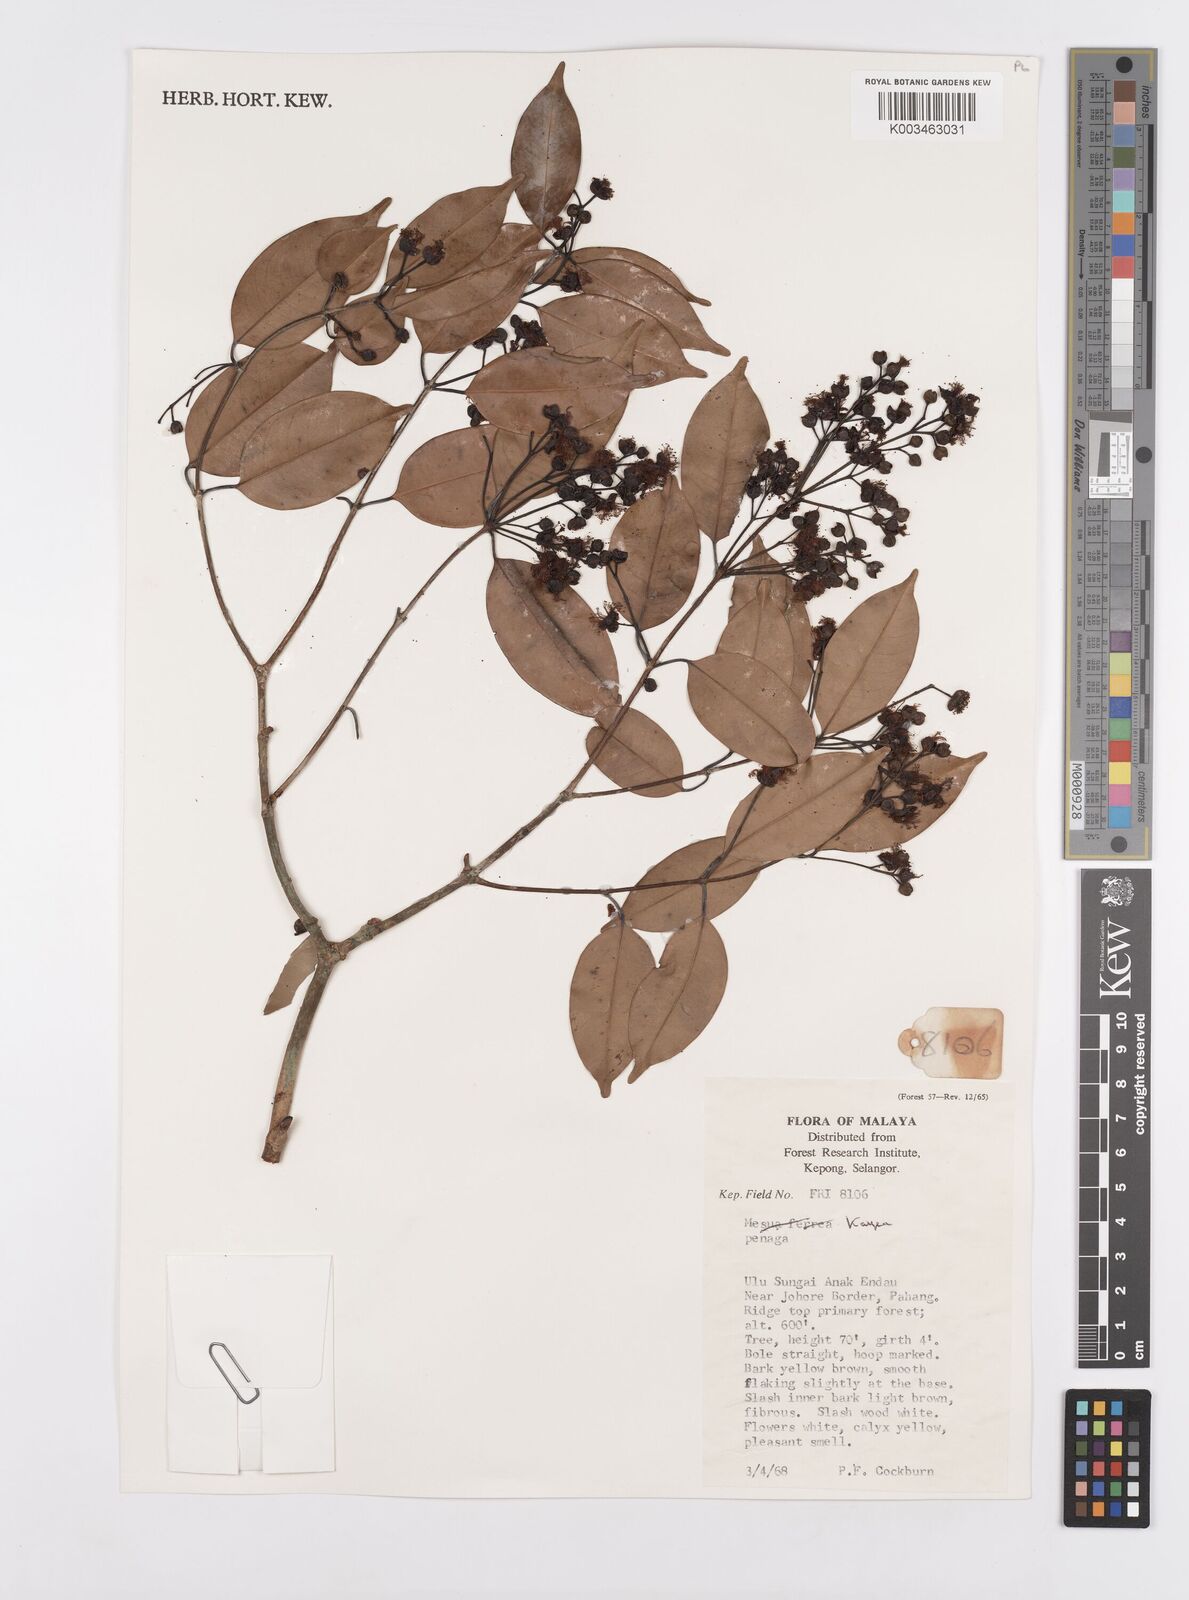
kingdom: Plantae
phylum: Tracheophyta
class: Magnoliopsida
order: Malpighiales
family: Calophyllaceae
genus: Kayea
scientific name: Kayea
